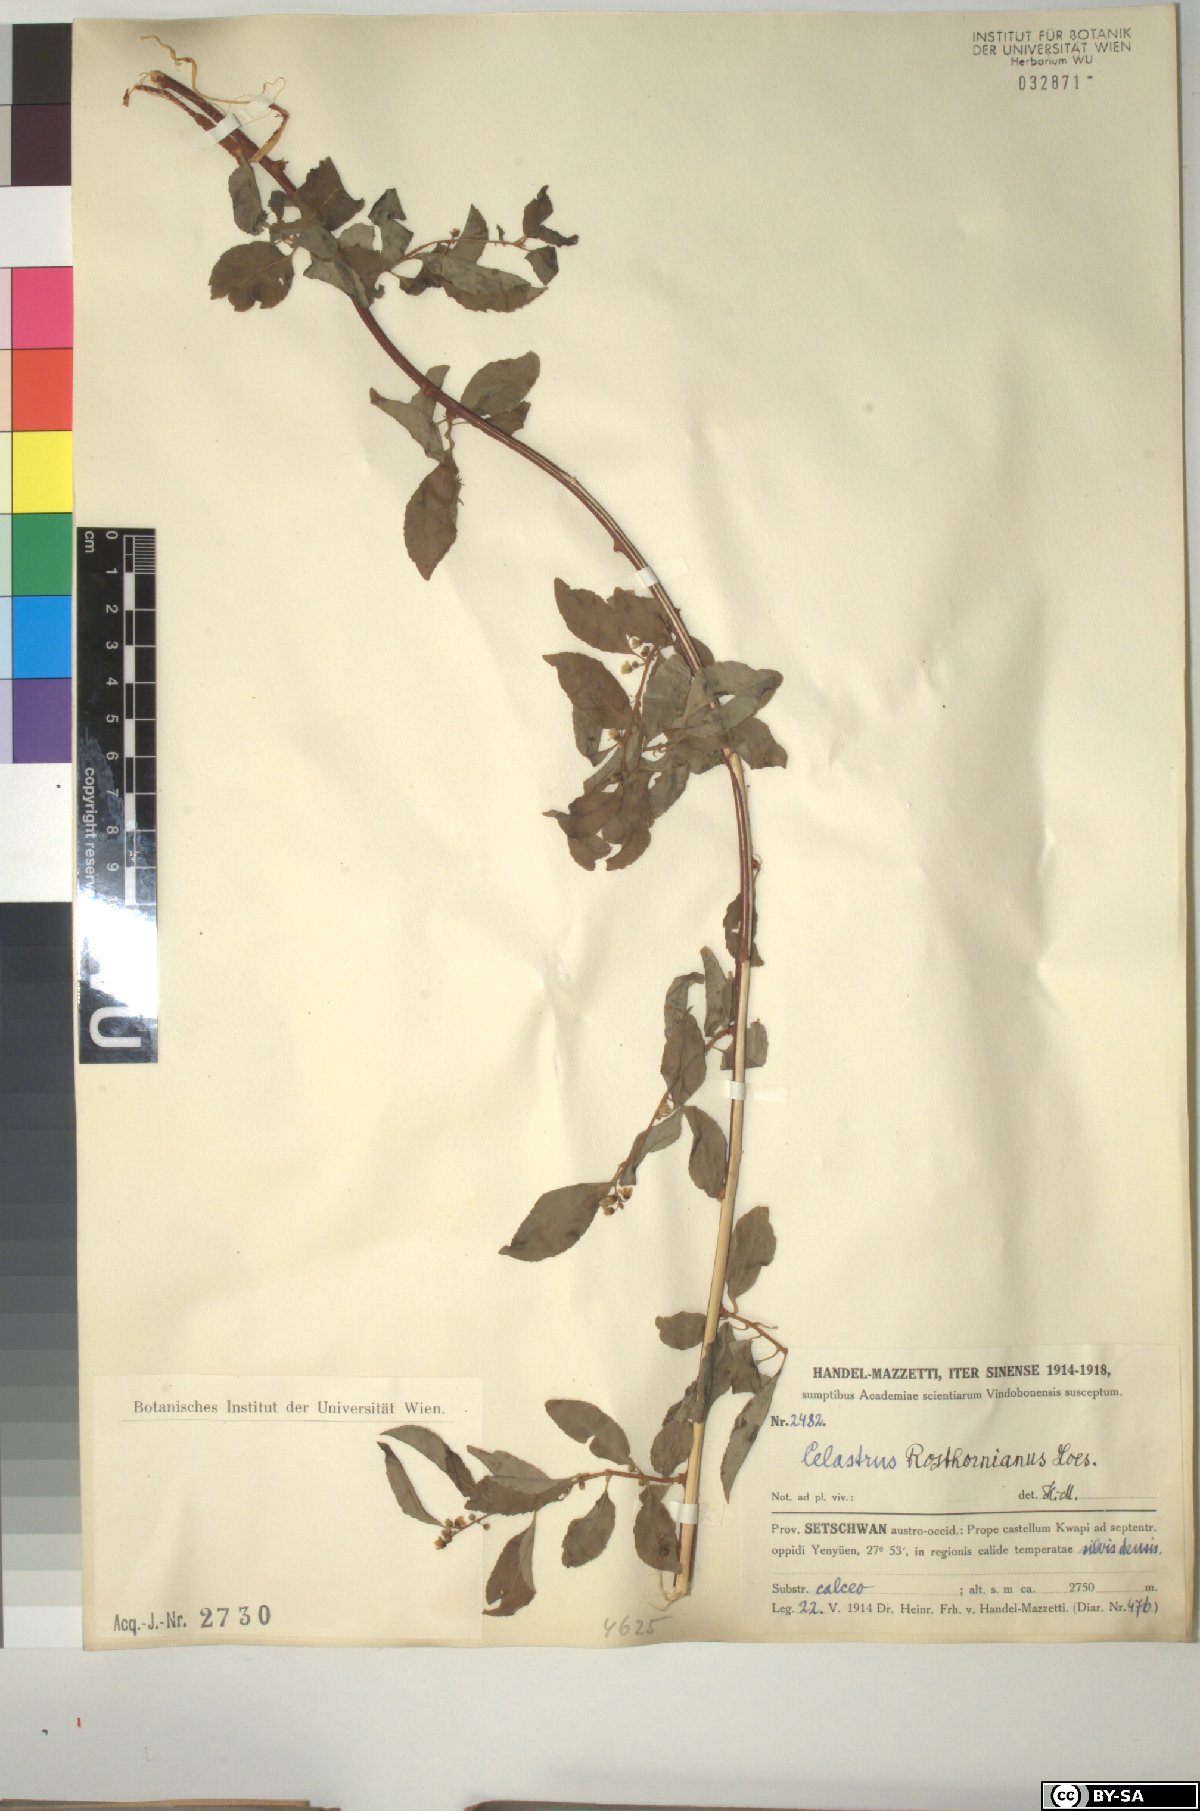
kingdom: Plantae
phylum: Tracheophyta
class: Magnoliopsida
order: Celastrales
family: Celastraceae
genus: Celastrus
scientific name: Celastrus rosthornianus
